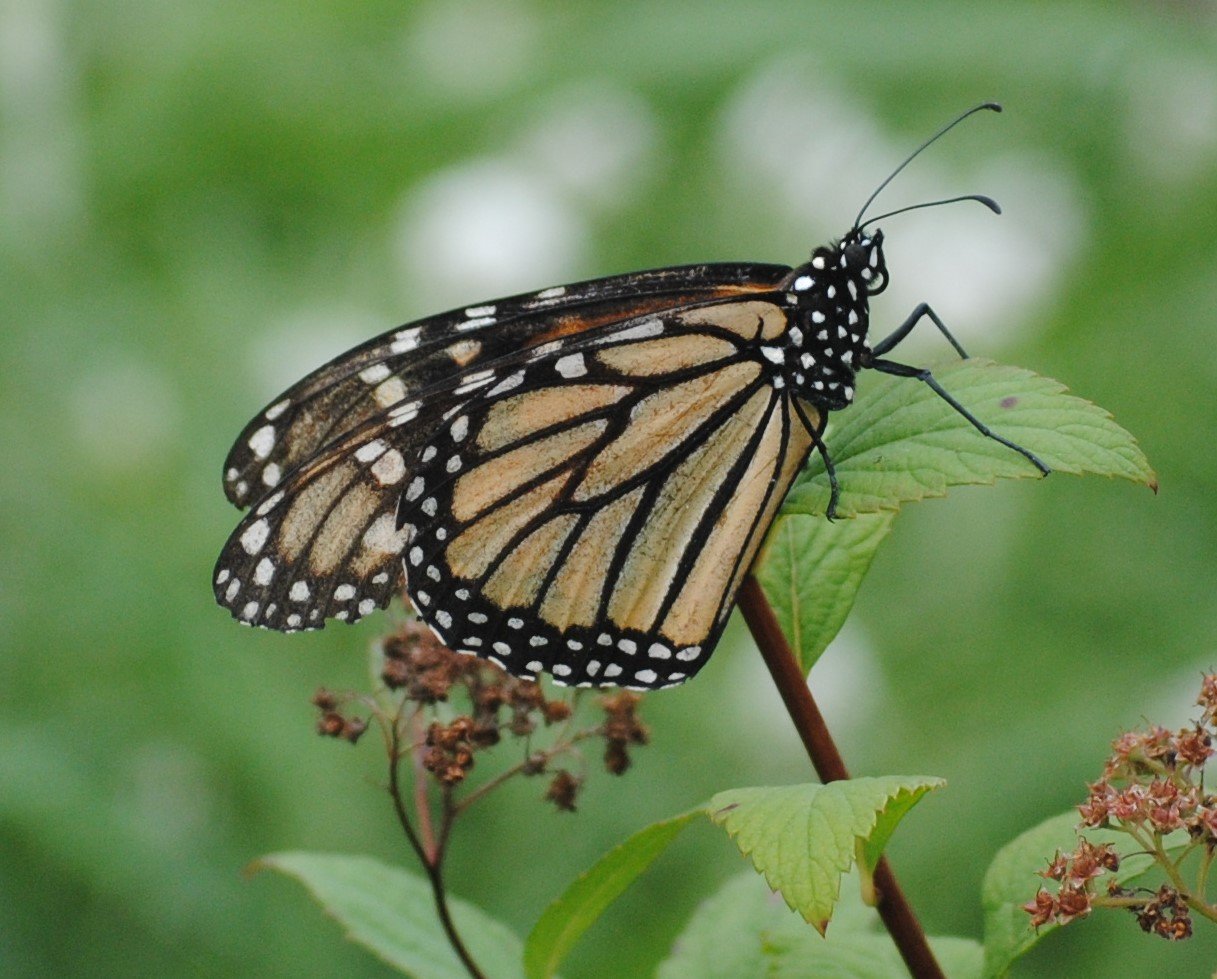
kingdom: Animalia
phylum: Arthropoda
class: Insecta
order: Lepidoptera
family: Nymphalidae
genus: Danaus
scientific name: Danaus plexippus
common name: Monarch
